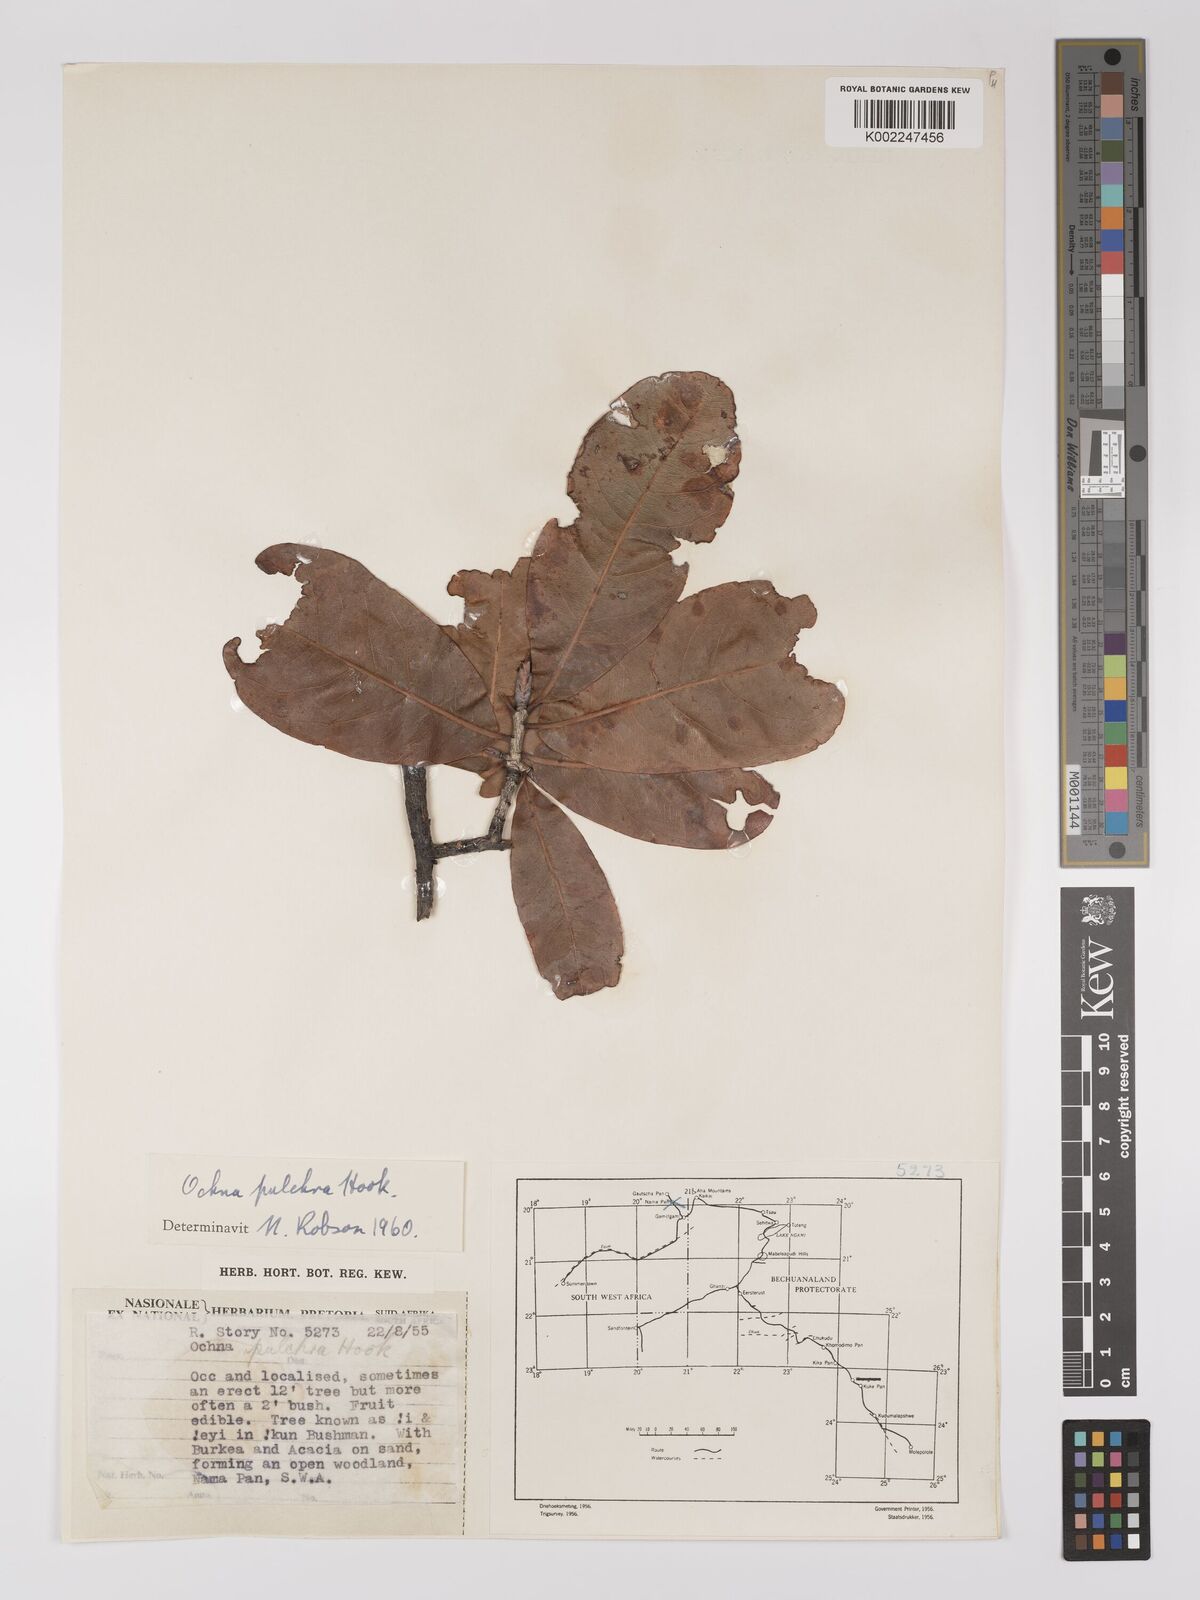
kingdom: Plantae
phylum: Tracheophyta
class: Magnoliopsida
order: Malpighiales
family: Ochnaceae
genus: Ochna
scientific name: Ochna pulchra
